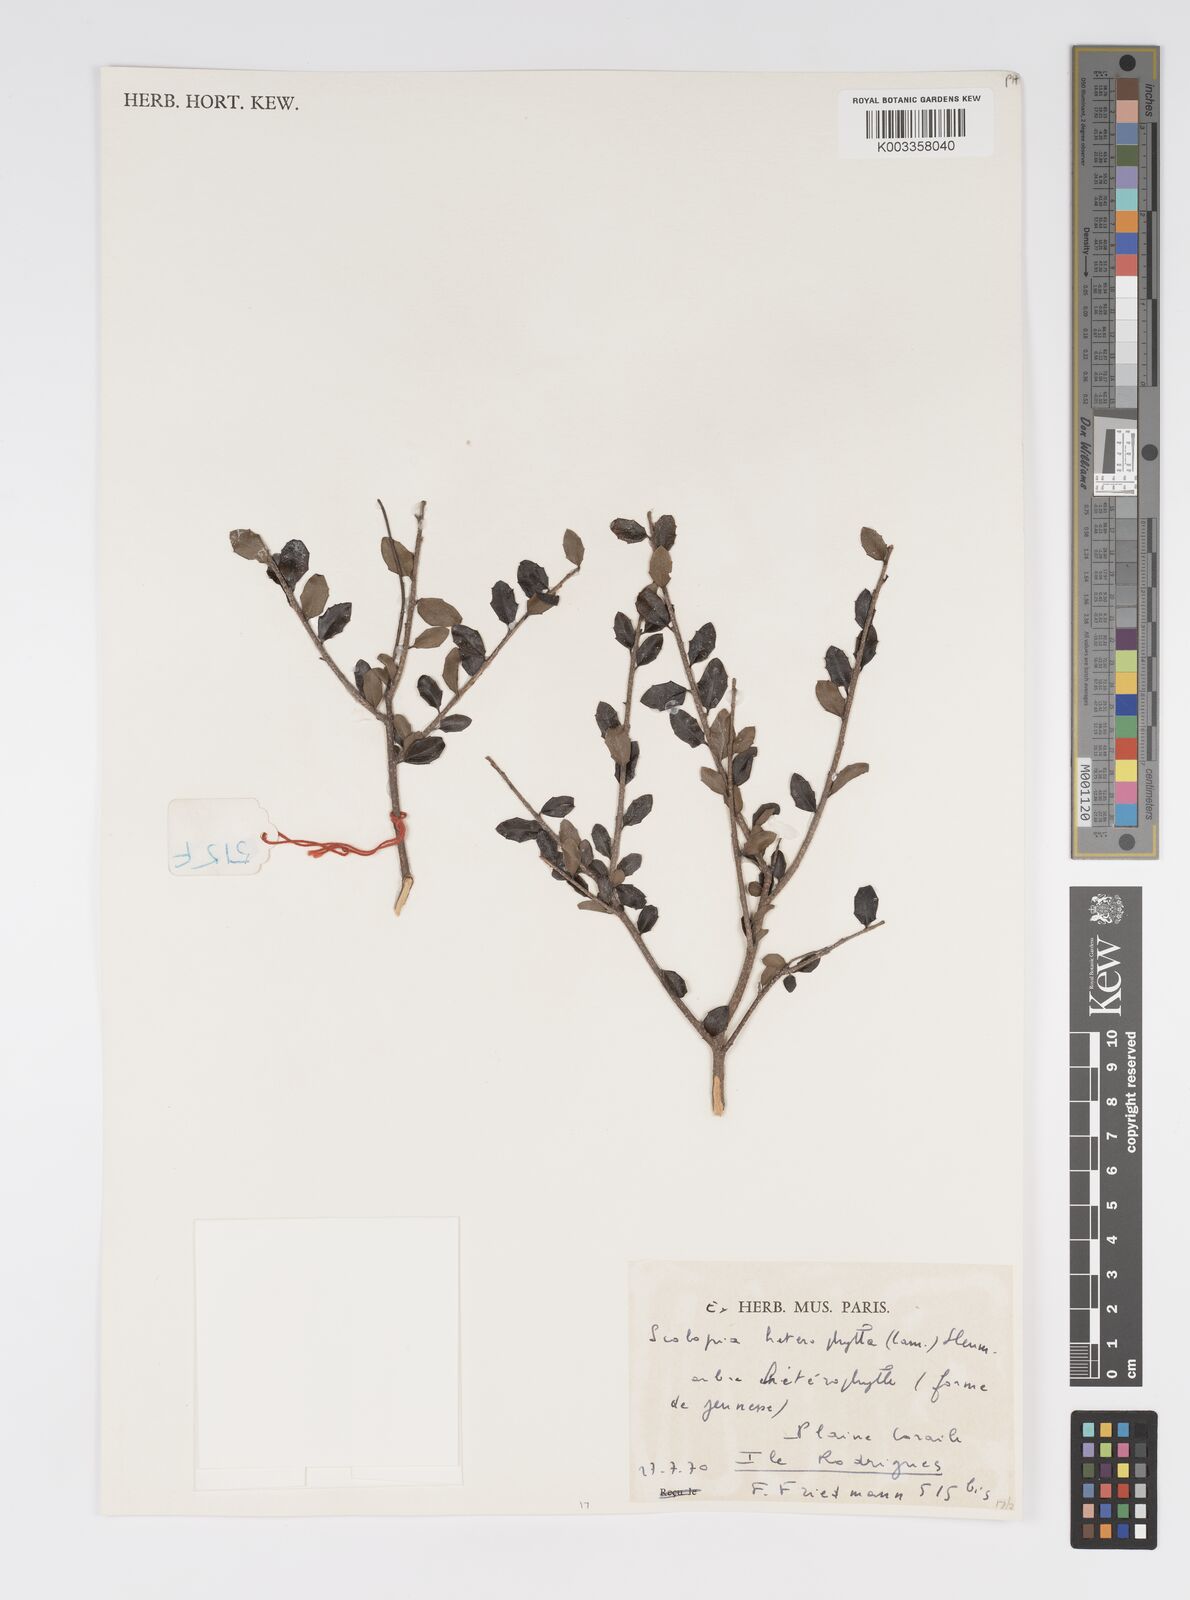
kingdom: Plantae
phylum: Tracheophyta
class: Magnoliopsida
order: Malpighiales
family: Salicaceae
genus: Scolopia
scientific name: Scolopia heterophylla
